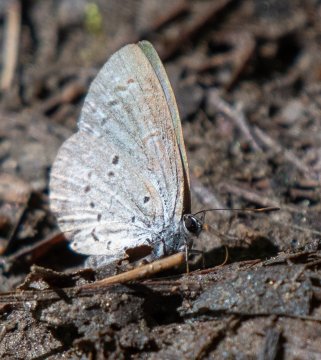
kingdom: Animalia
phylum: Arthropoda
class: Insecta
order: Lepidoptera
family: Lycaenidae
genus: Celastrina
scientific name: Celastrina lucia
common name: Northern Spring Azure
